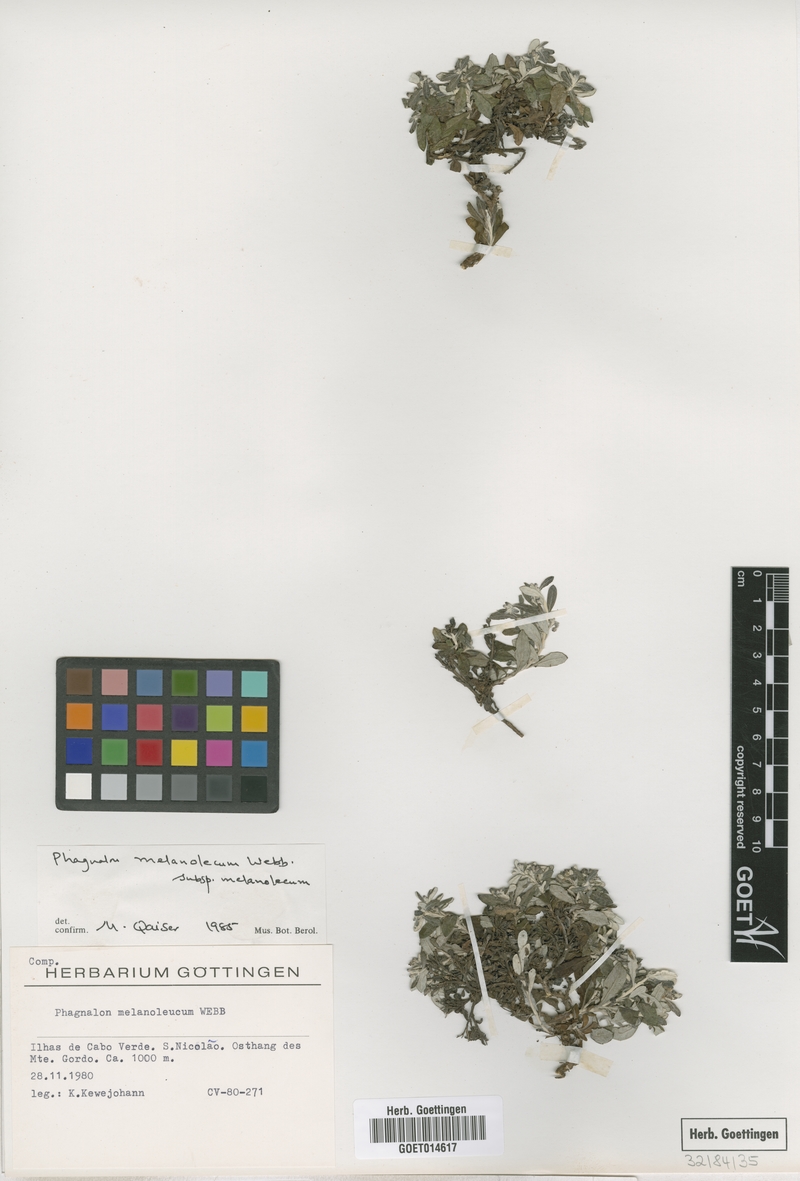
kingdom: Plantae
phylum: Tracheophyta
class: Magnoliopsida
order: Asterales
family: Asteraceae
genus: Phagnalon
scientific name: Phagnalon melanoleucum
